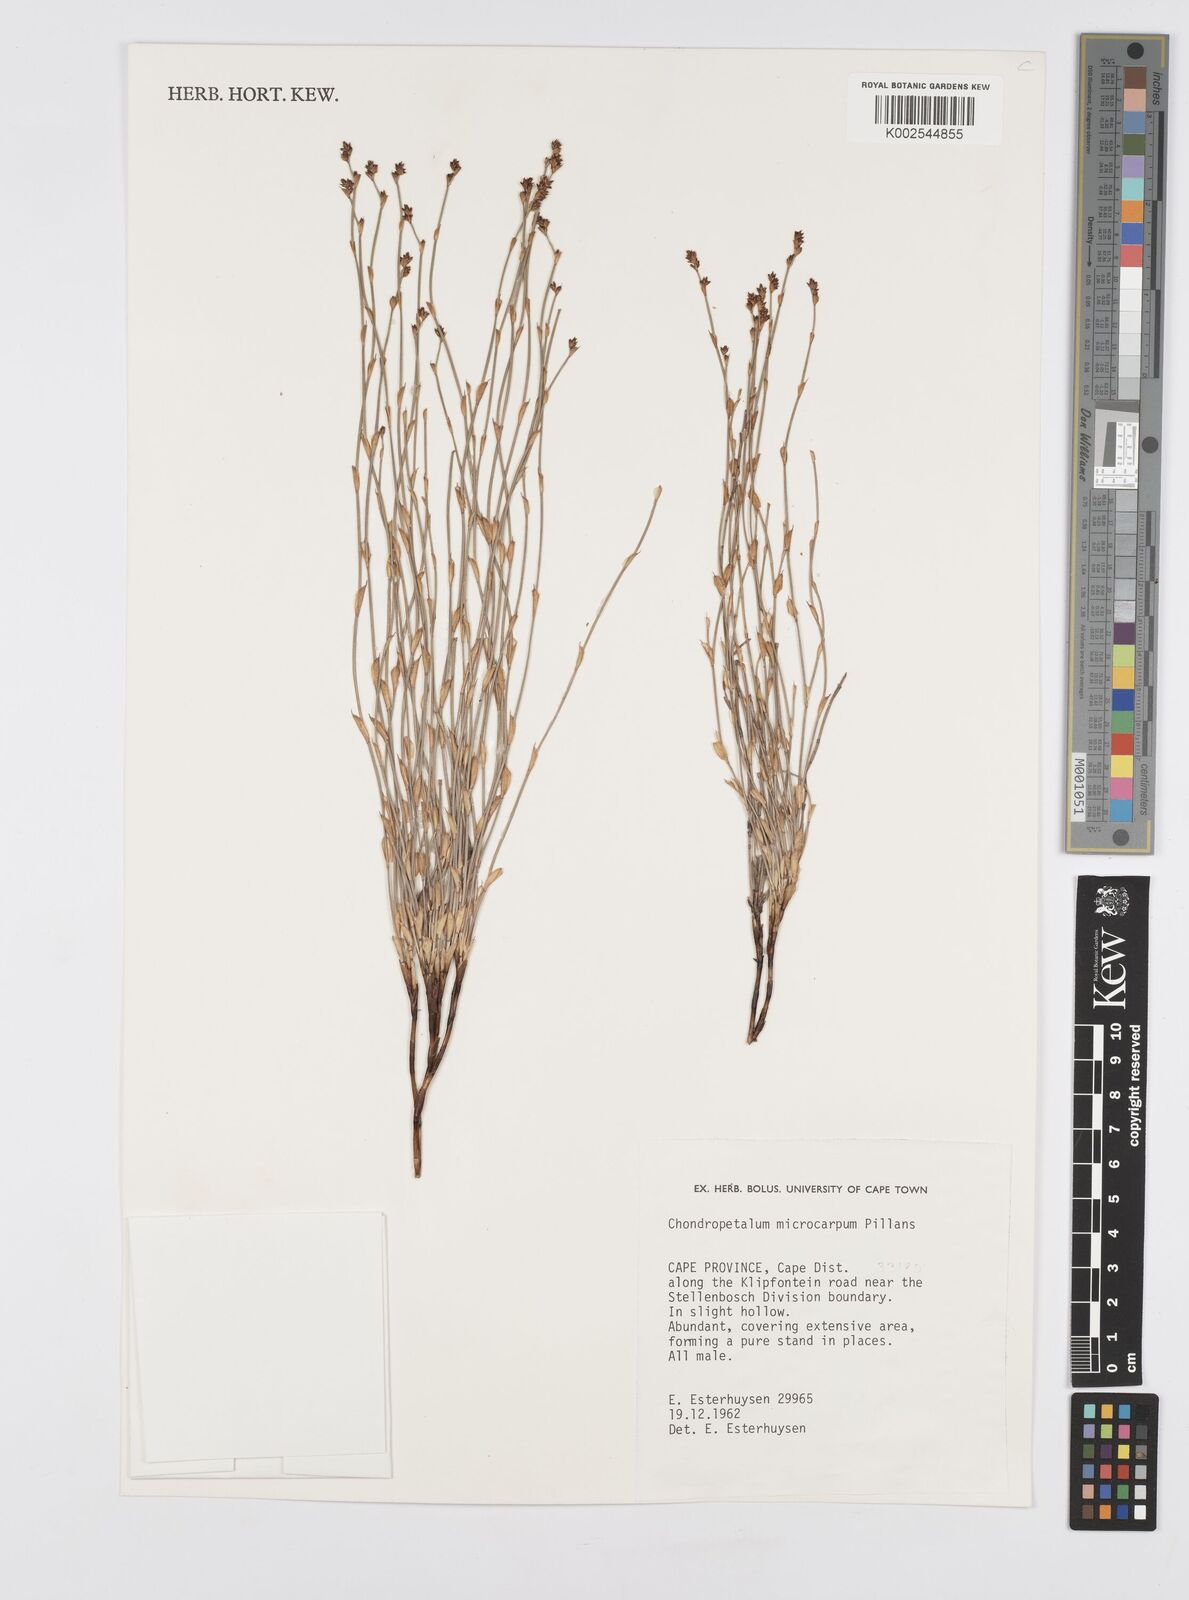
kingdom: Plantae
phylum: Tracheophyta
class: Liliopsida
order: Poales
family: Restionaceae
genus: Elegia
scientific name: Elegia microcarpa
